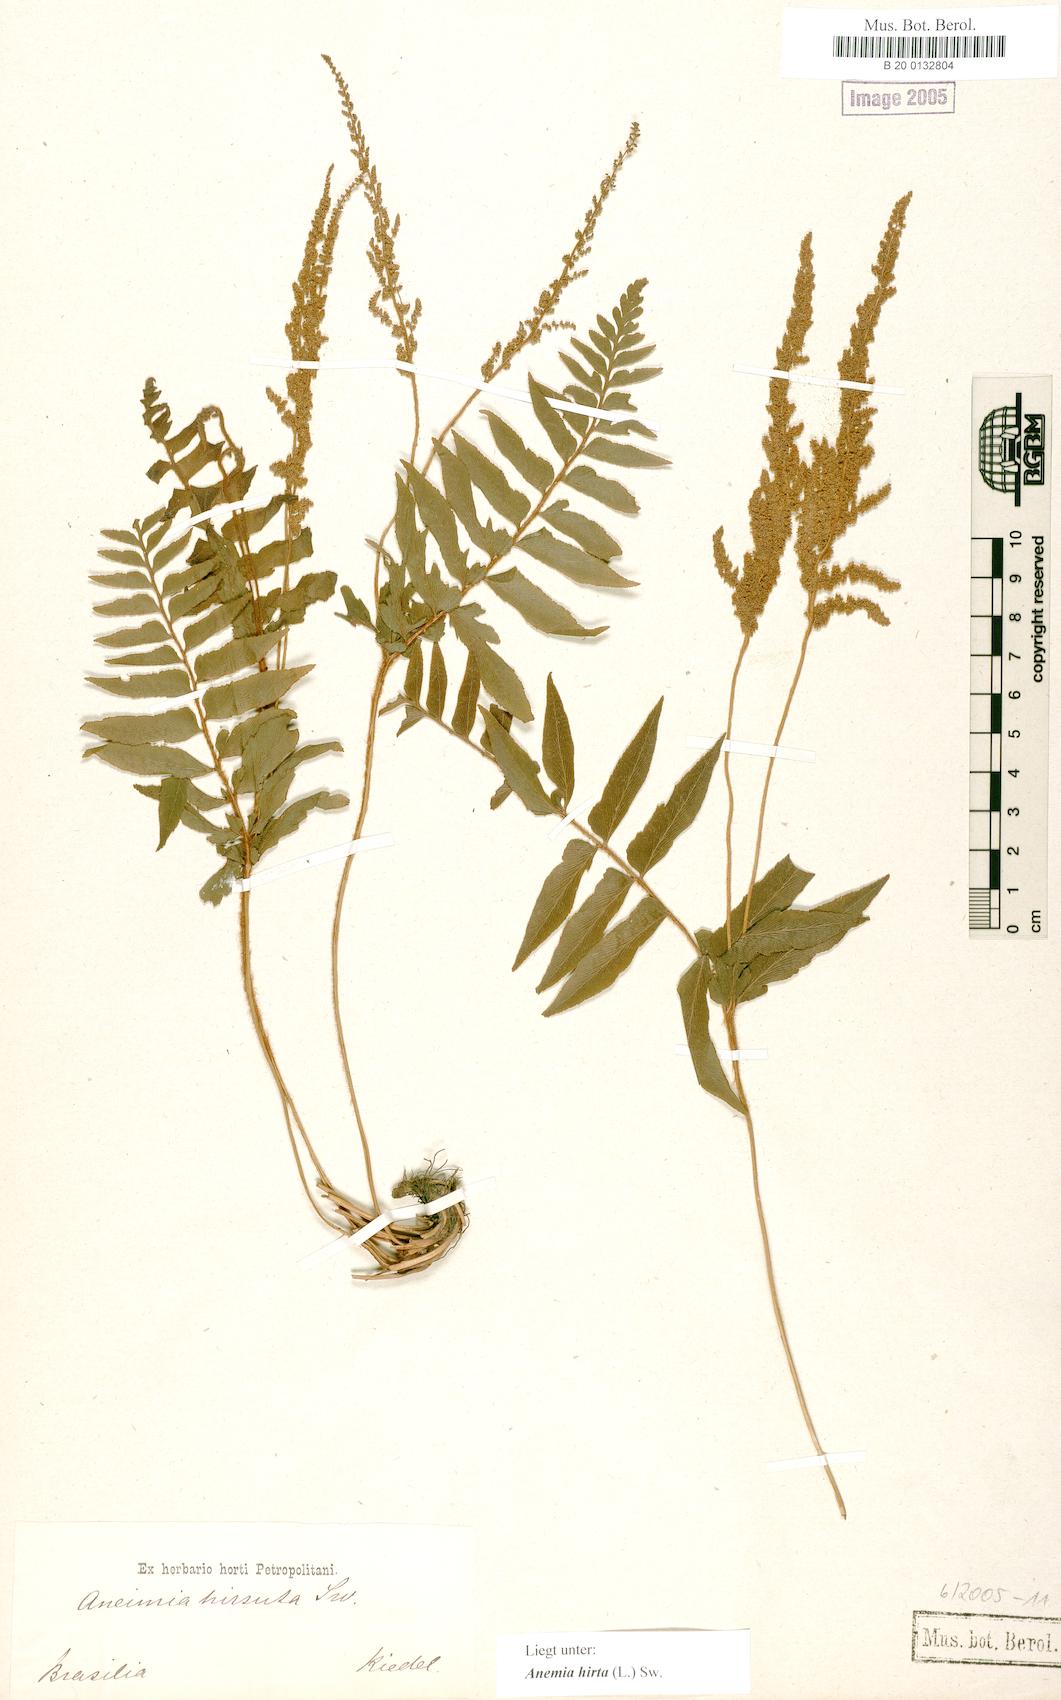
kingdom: Plantae
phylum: Tracheophyta
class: Polypodiopsida
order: Schizaeales
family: Anemiaceae
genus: Anemia
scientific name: Anemia hirta
